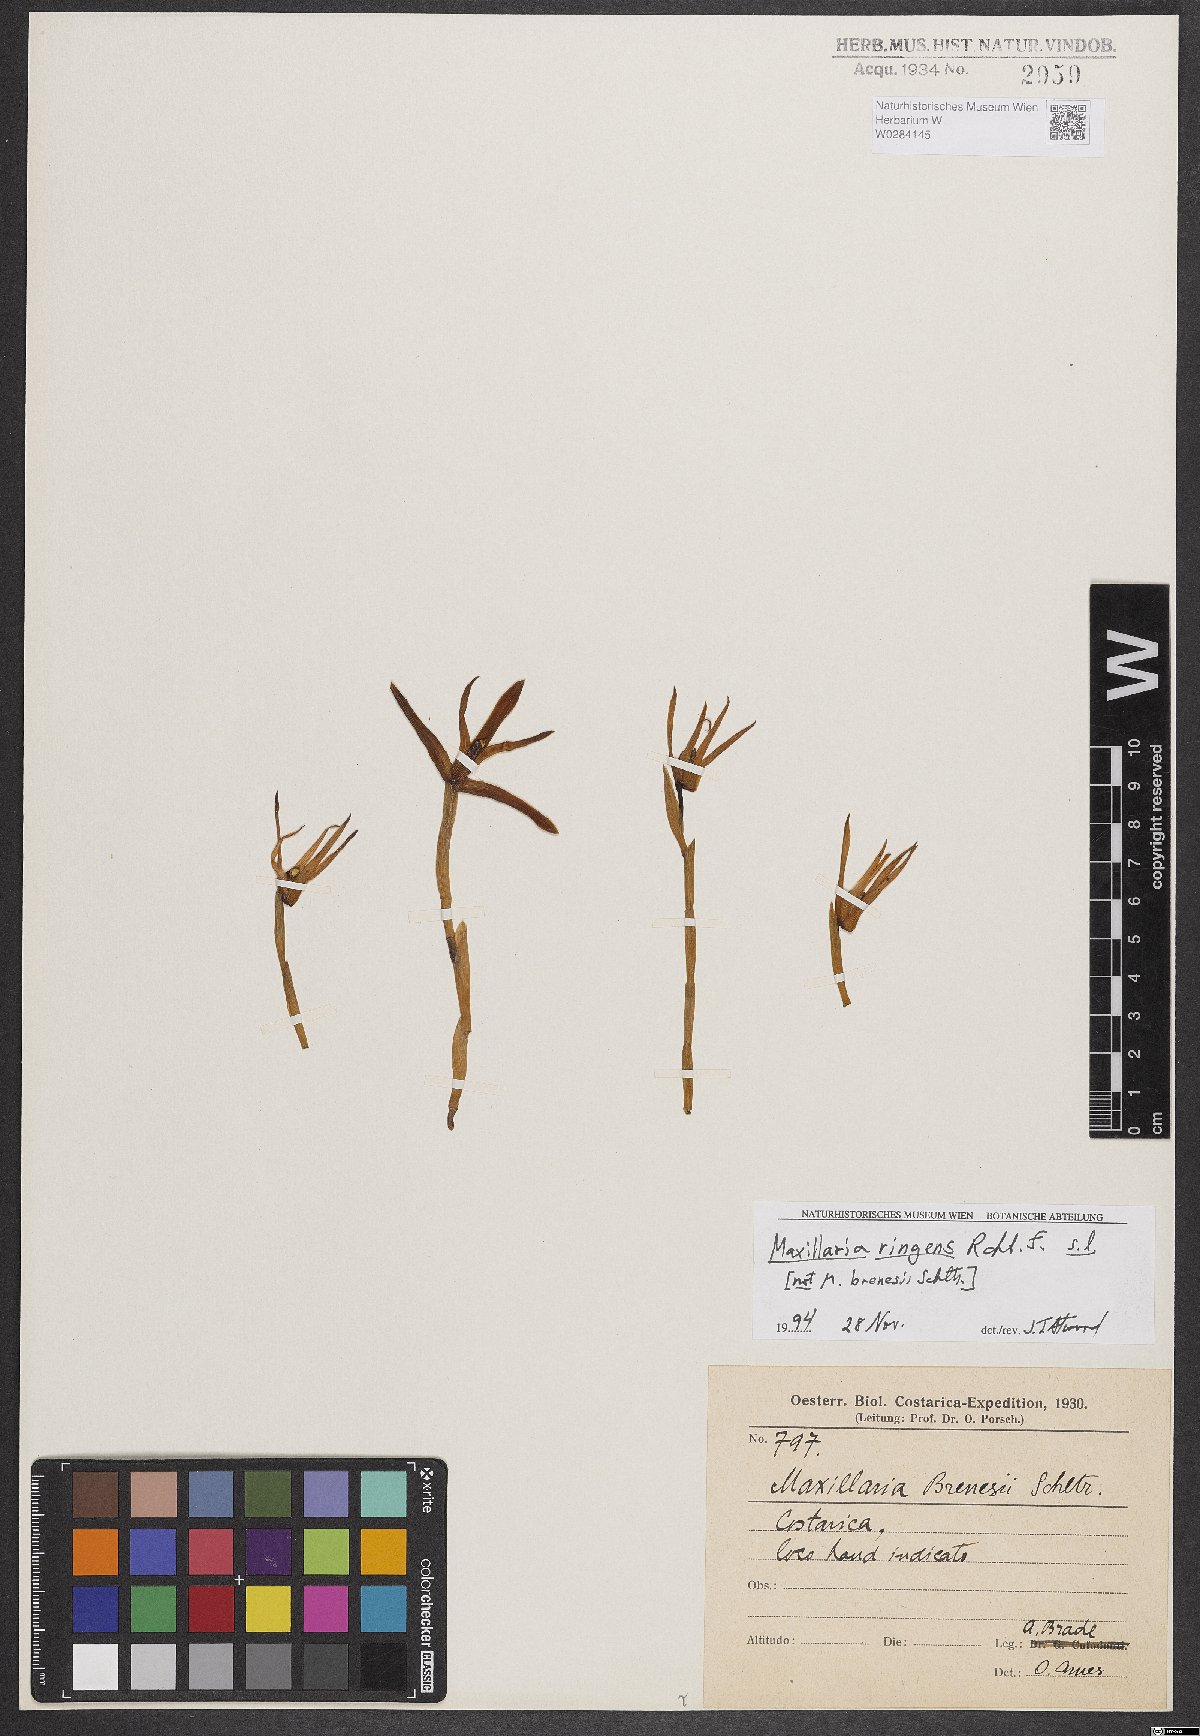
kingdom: Plantae
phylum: Tracheophyta
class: Liliopsida
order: Asparagales
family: Orchidaceae
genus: Maxillaria
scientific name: Maxillaria ringens
